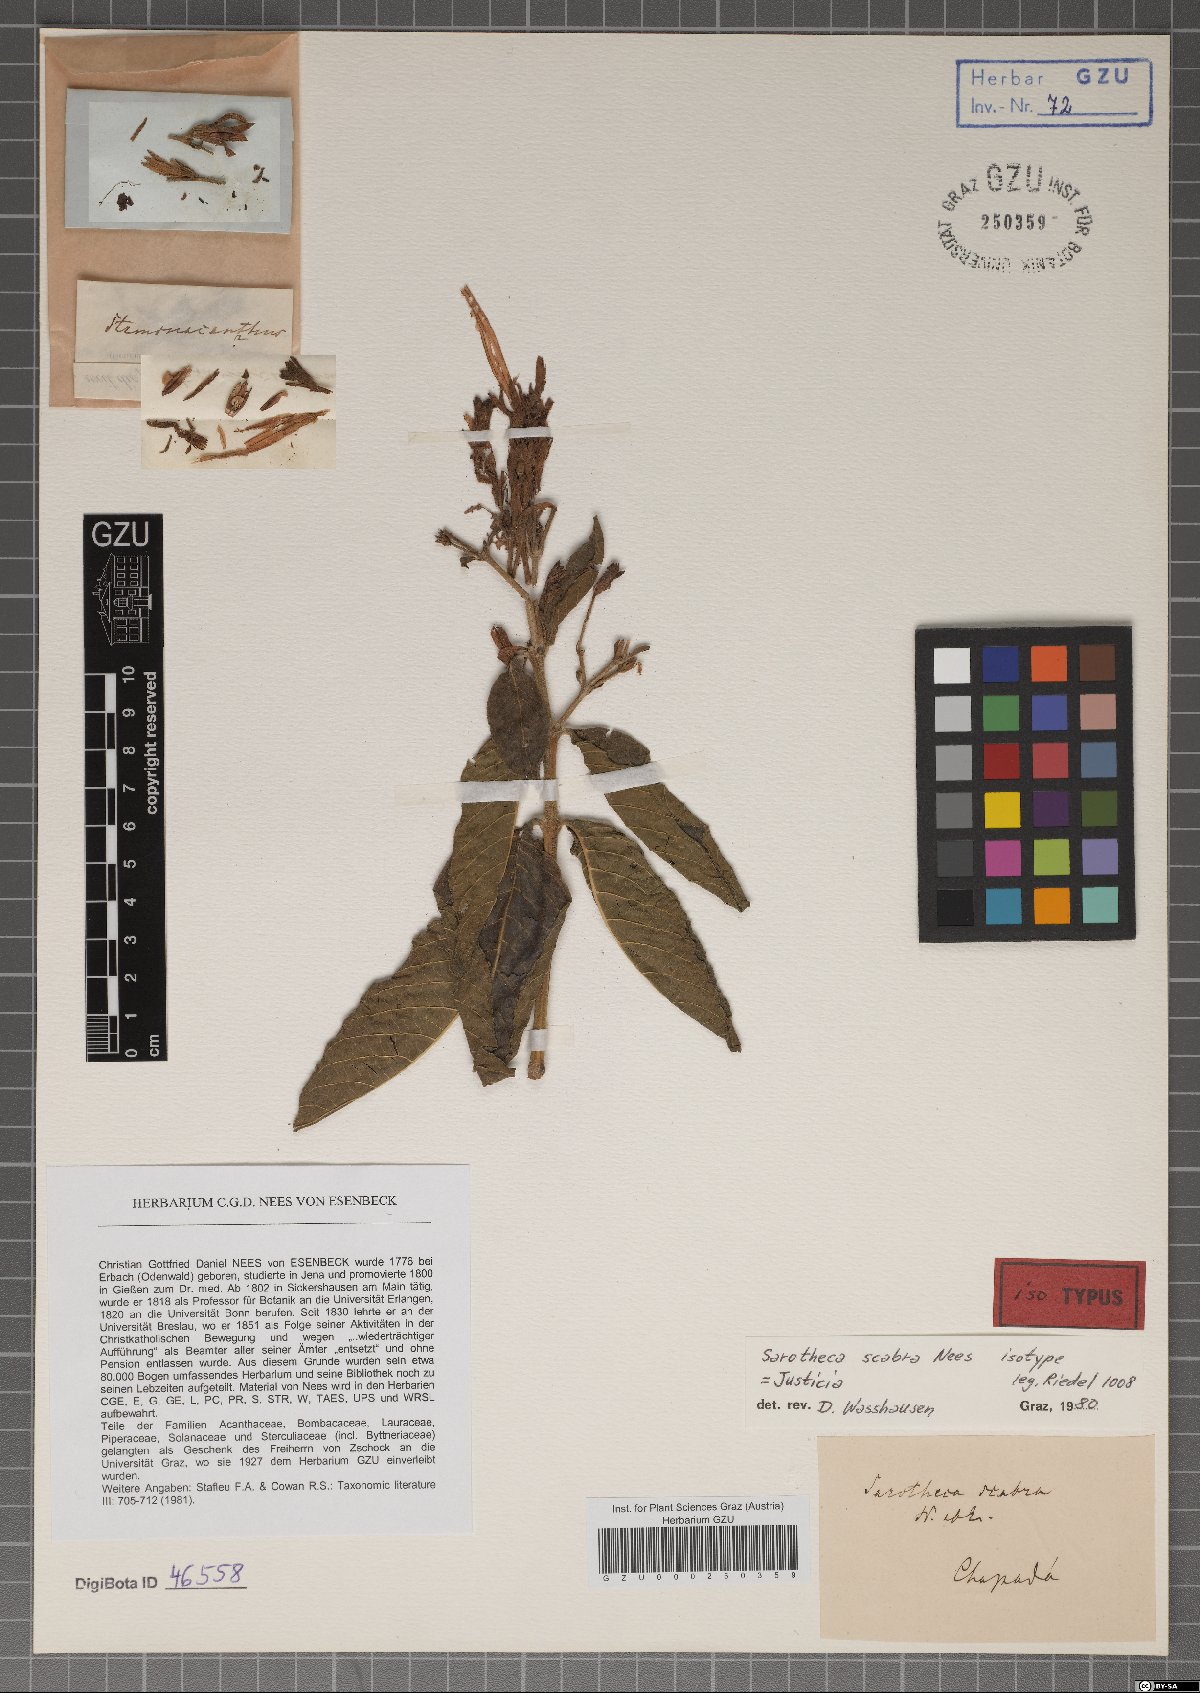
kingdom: Plantae
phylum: Tracheophyta
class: Magnoliopsida
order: Lamiales
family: Acanthaceae
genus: Justicia
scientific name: Justicia rectiflora
